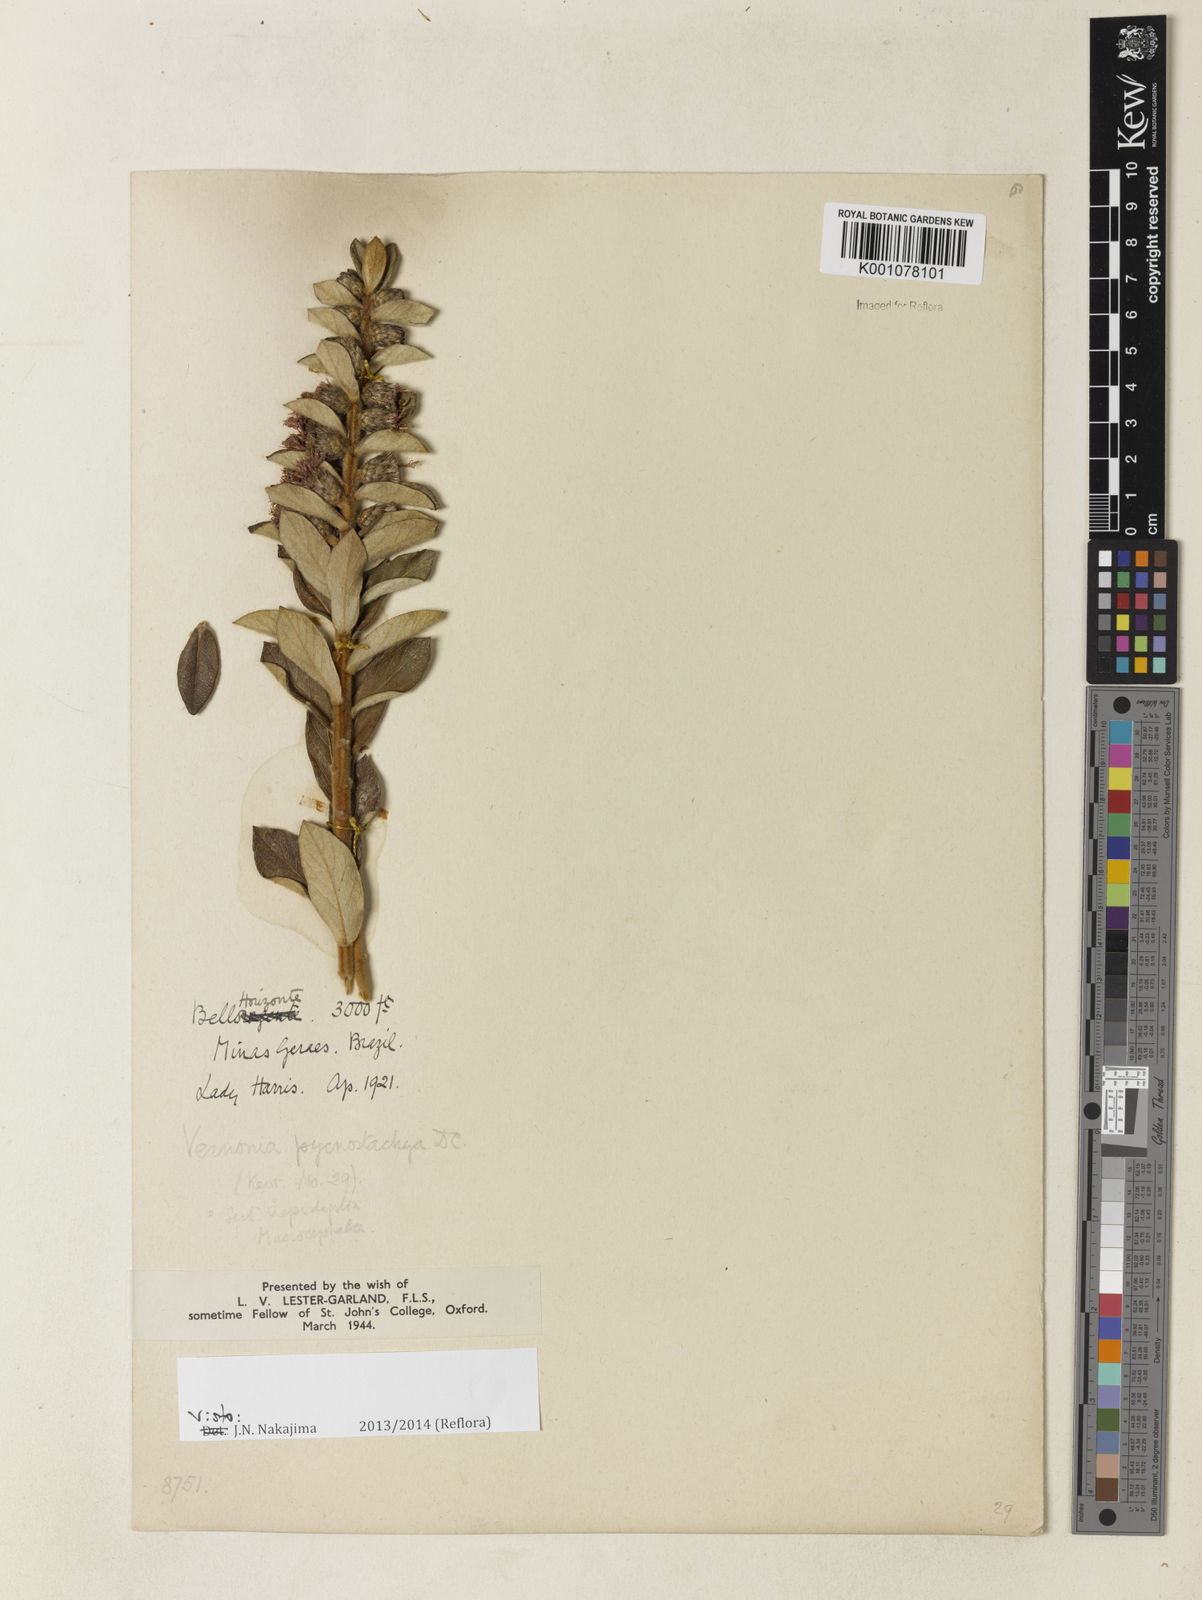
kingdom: Plantae
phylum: Tracheophyta
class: Magnoliopsida
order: Asterales
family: Asteraceae
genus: Lessingianthus
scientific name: Lessingianthus pycnostachyus
